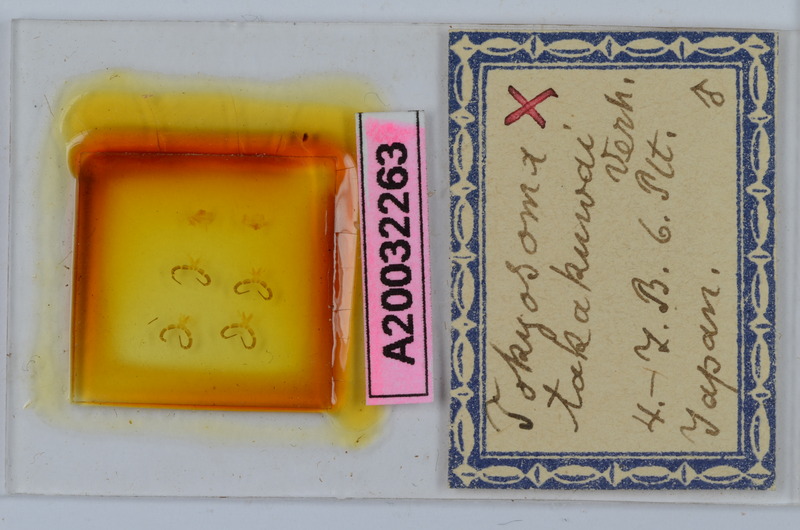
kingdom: Animalia
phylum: Arthropoda
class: Diplopoda
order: Chordeumatida
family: Diplomaragnidae
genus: Tokyosoma
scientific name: Tokyosoma takakuwai
